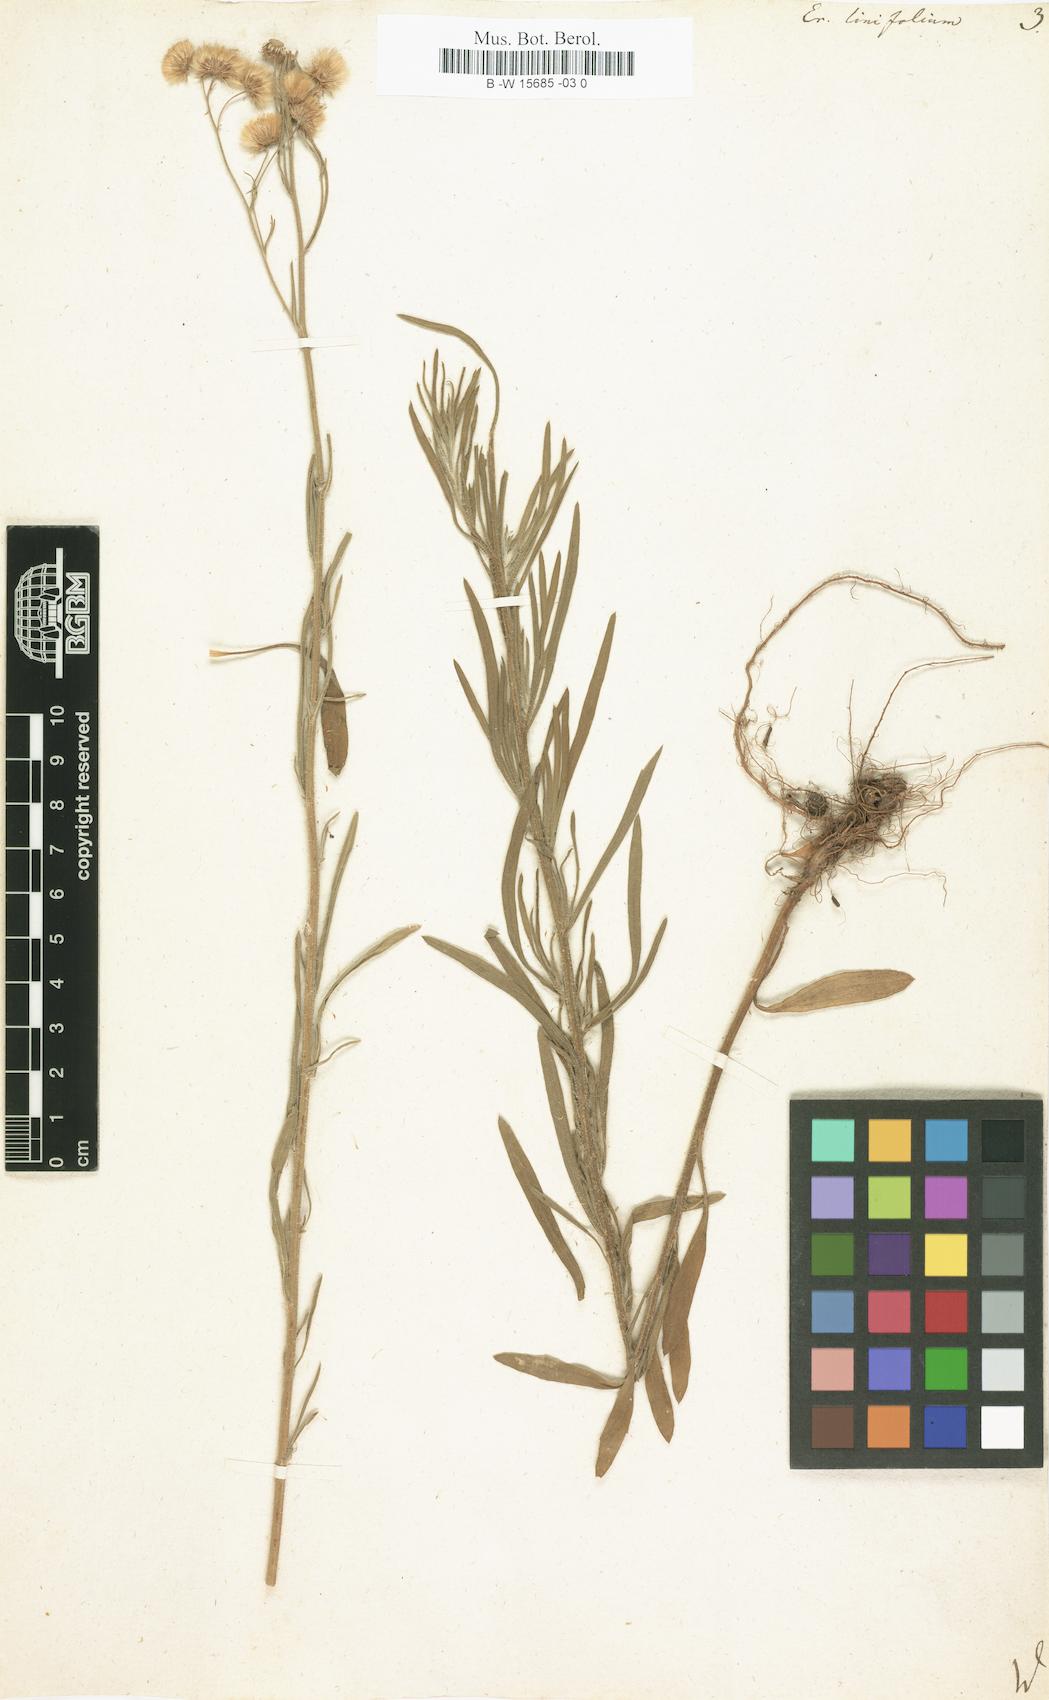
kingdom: Plantae
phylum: Tracheophyta
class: Magnoliopsida
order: Asterales
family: Asteraceae
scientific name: Asteraceae
